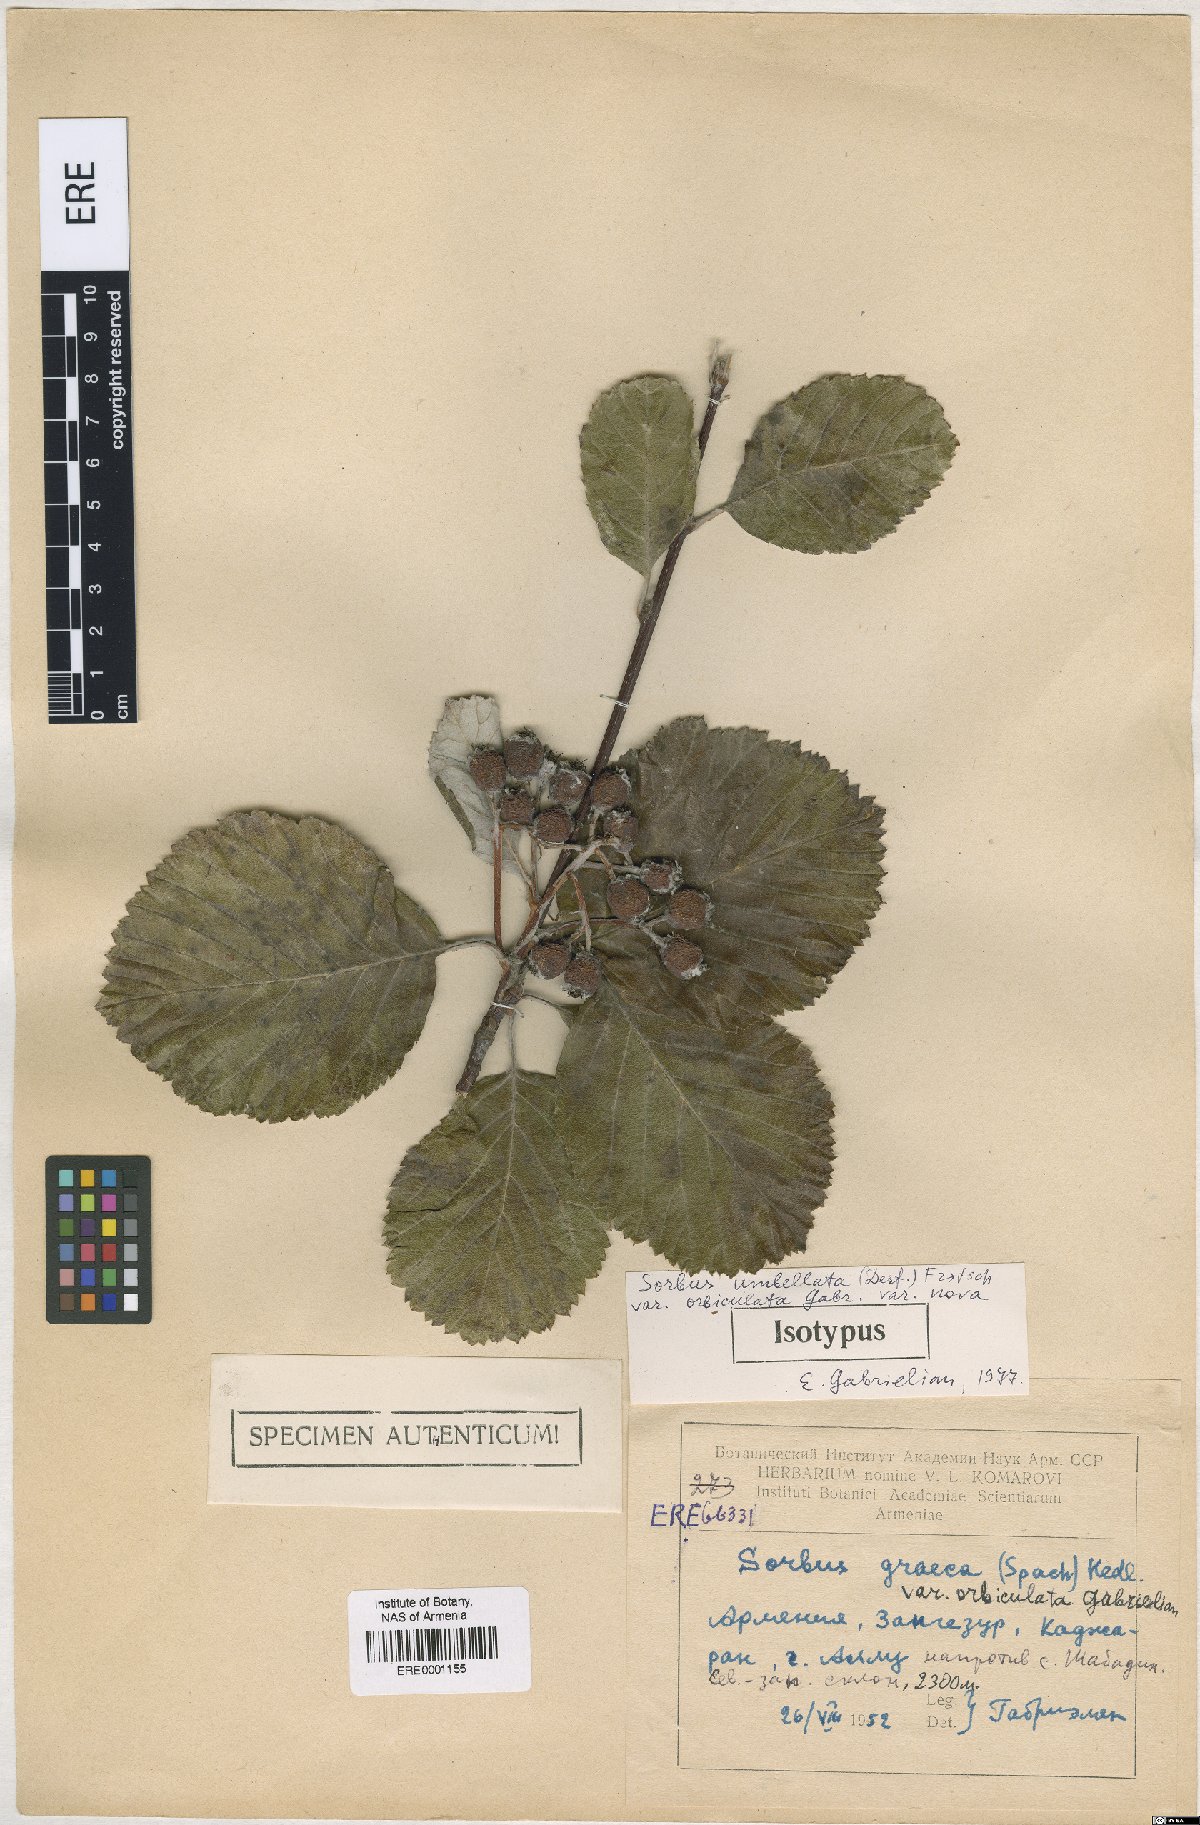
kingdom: Plantae
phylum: Tracheophyta
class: Magnoliopsida
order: Rosales
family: Rosaceae
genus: Aria
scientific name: Aria umbellata
